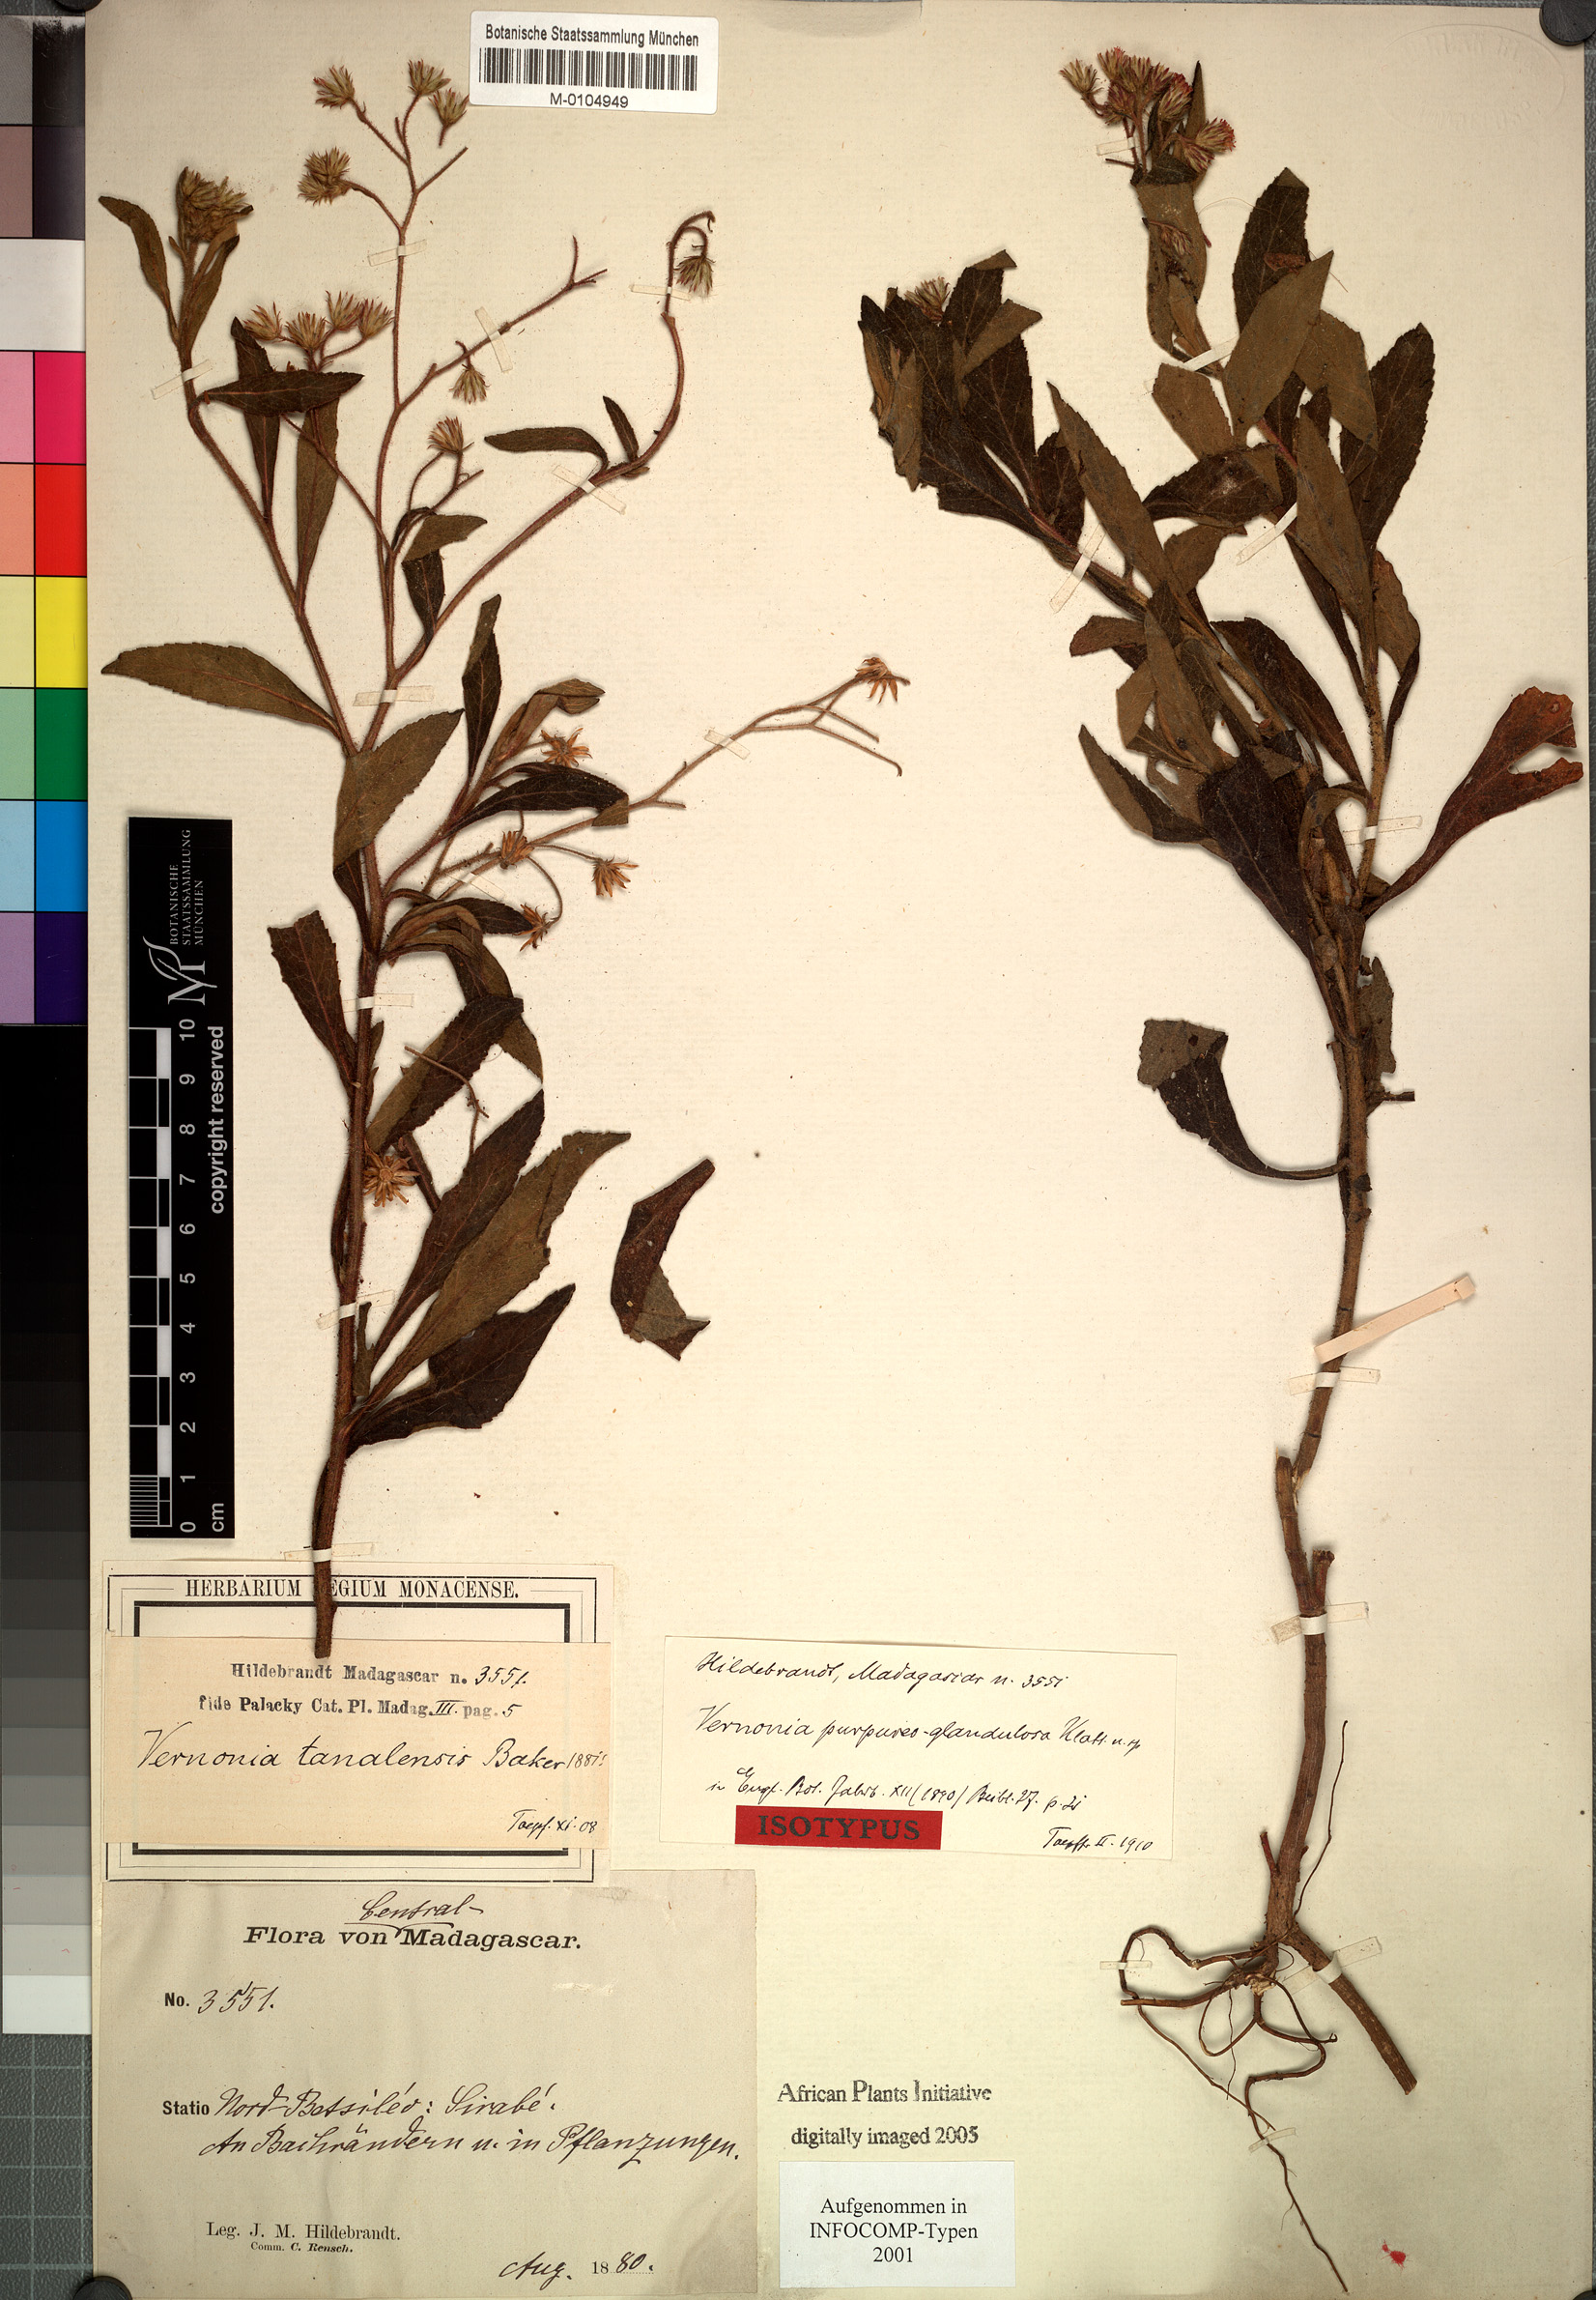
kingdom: Plantae
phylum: Tracheophyta
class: Magnoliopsida
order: Asterales
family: Asteraceae
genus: Bechium
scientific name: Bechium rhodolepis
